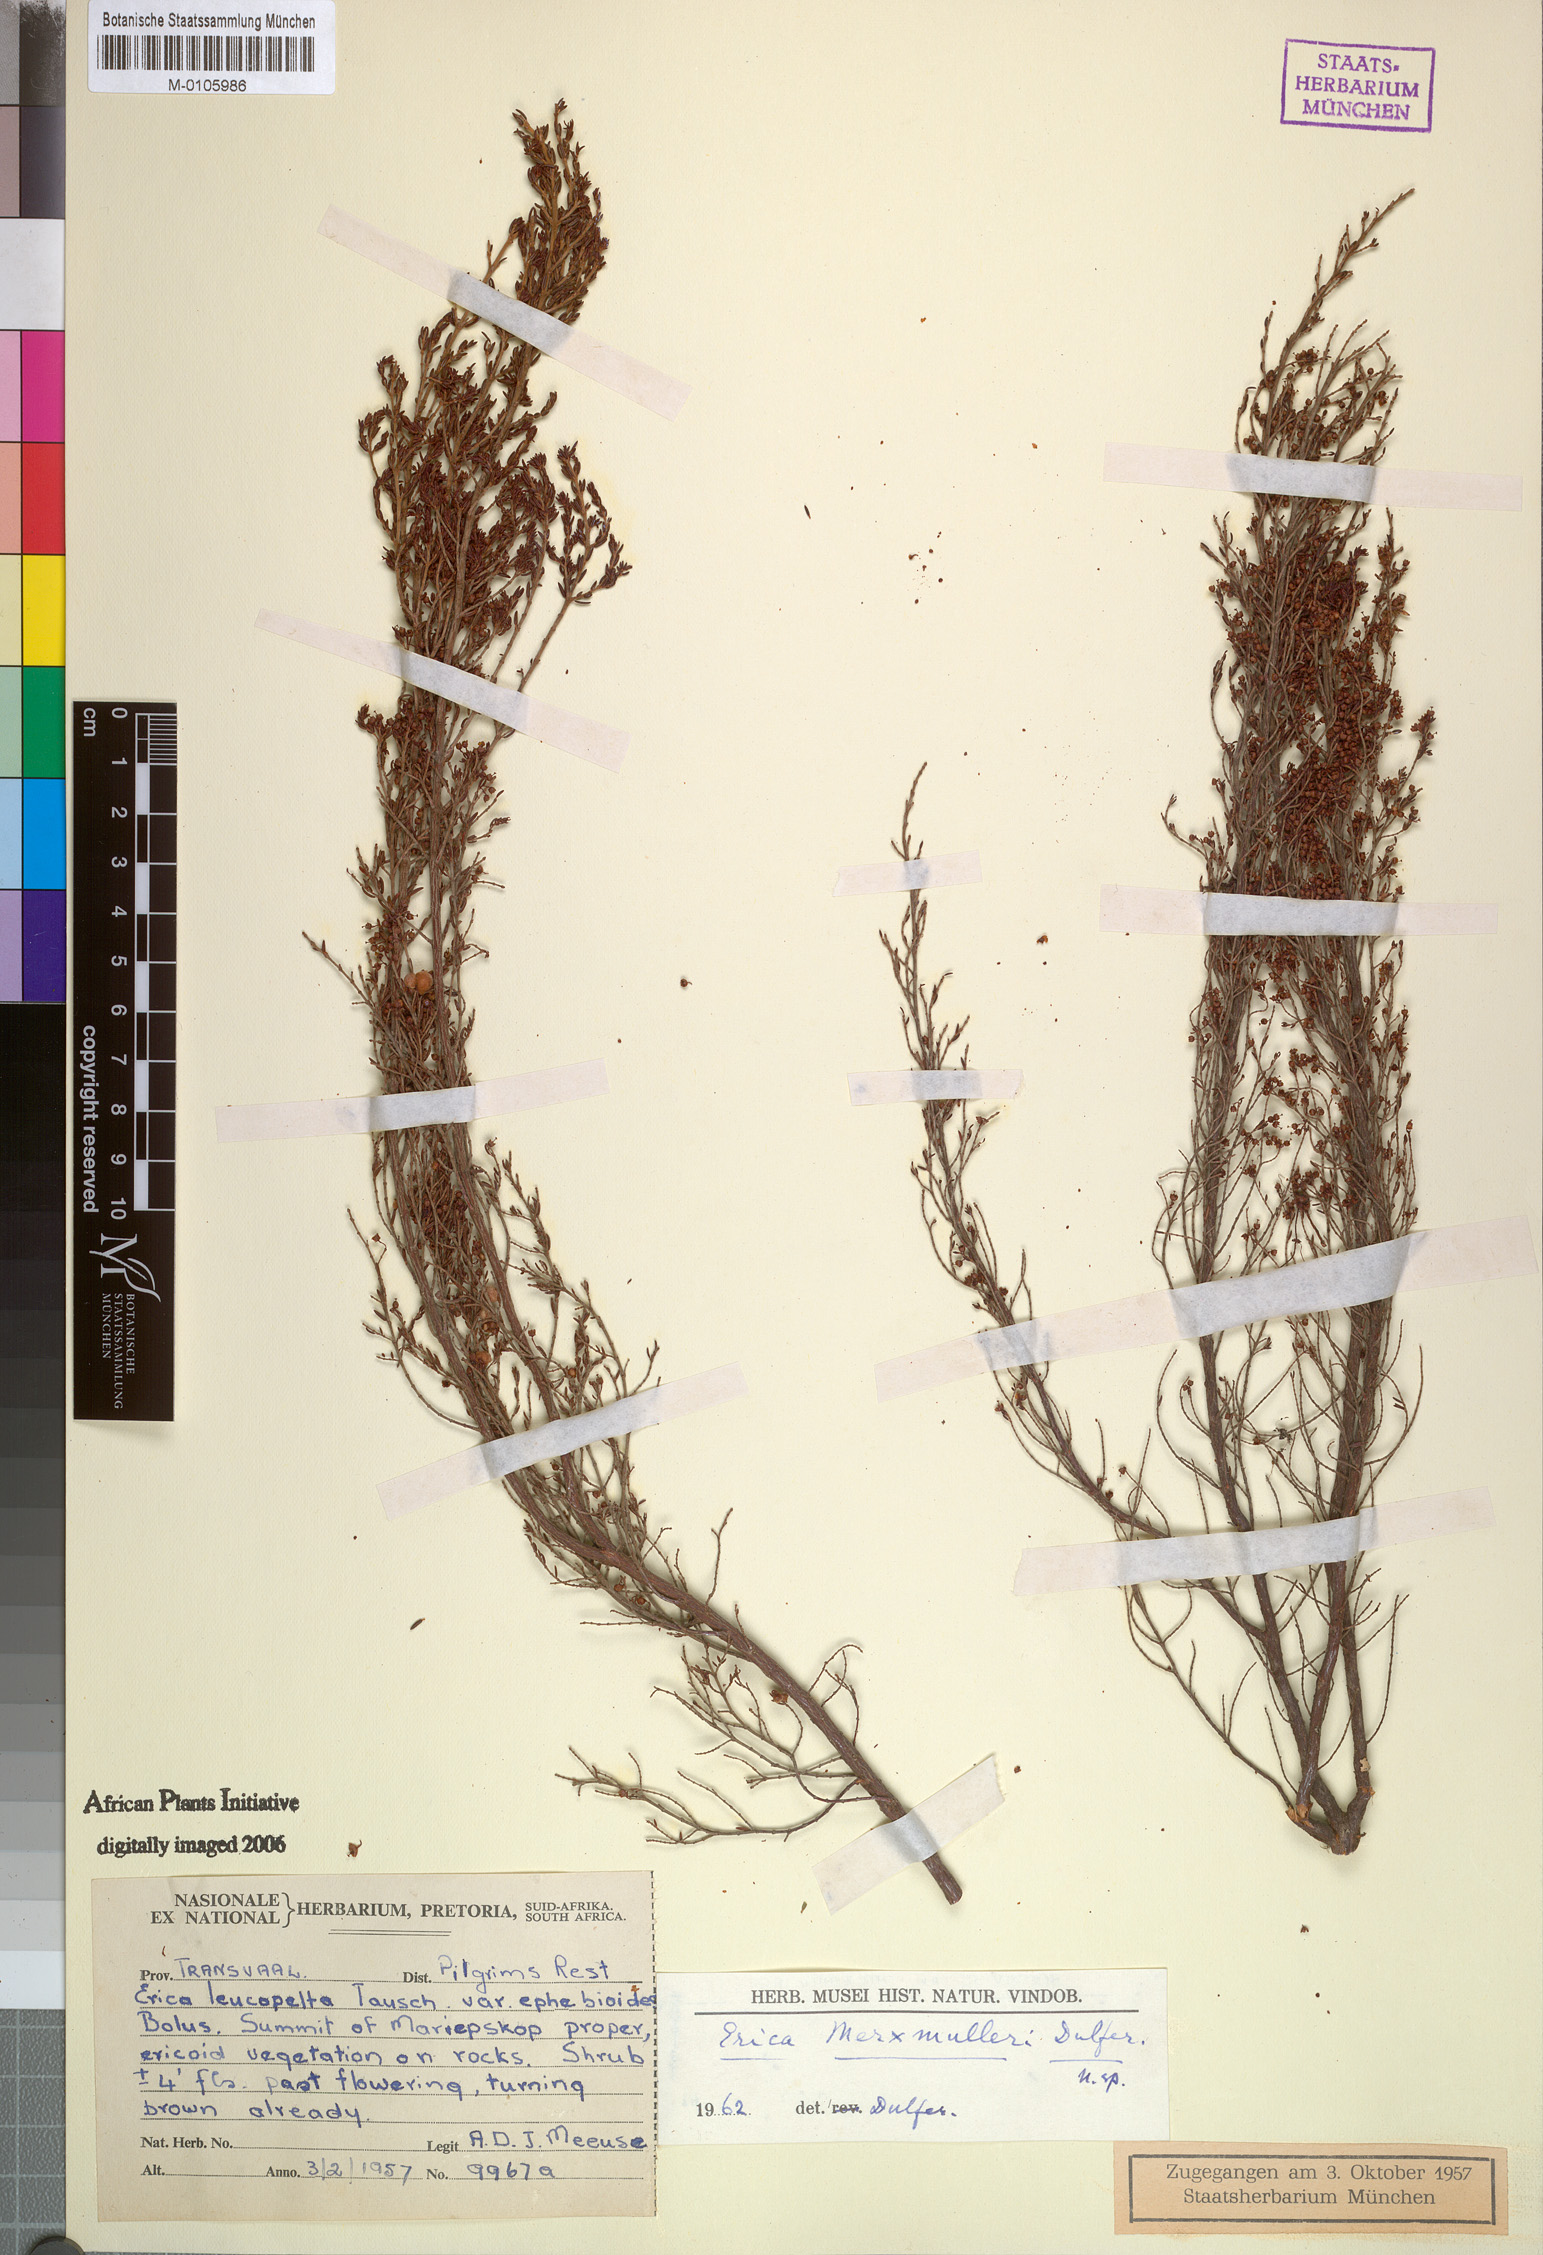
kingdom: Plantae
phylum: Tracheophyta
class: Magnoliopsida
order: Ericales
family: Ericaceae
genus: Erica
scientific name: Erica natalitia
